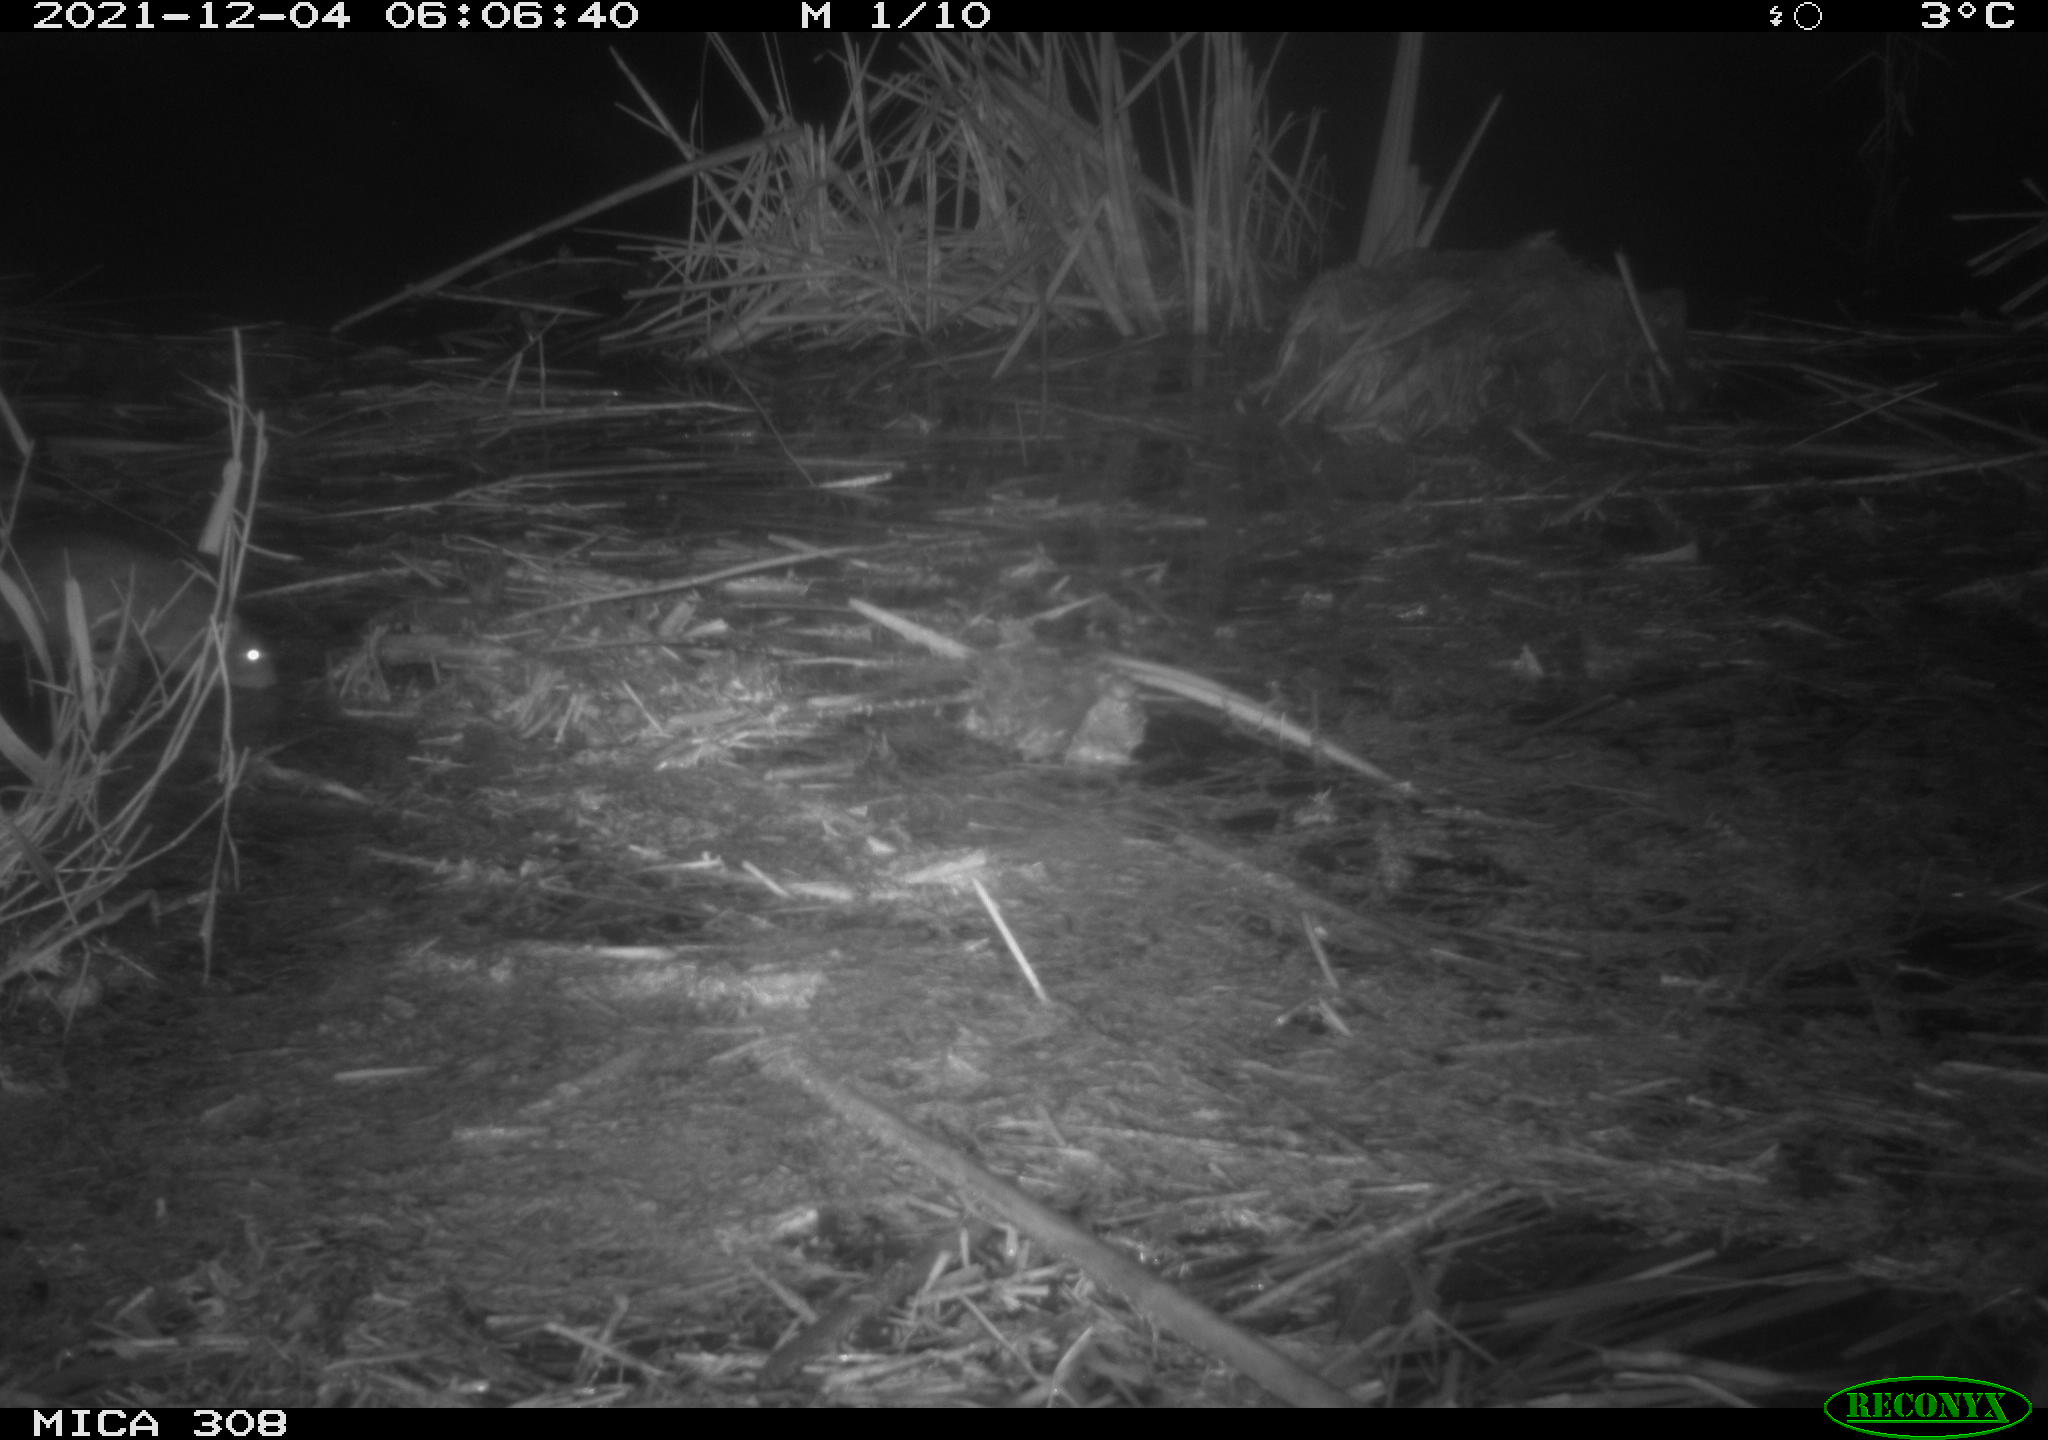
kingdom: Animalia
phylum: Chordata
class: Mammalia
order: Rodentia
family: Muridae
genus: Rattus
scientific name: Rattus norvegicus
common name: Brown rat
